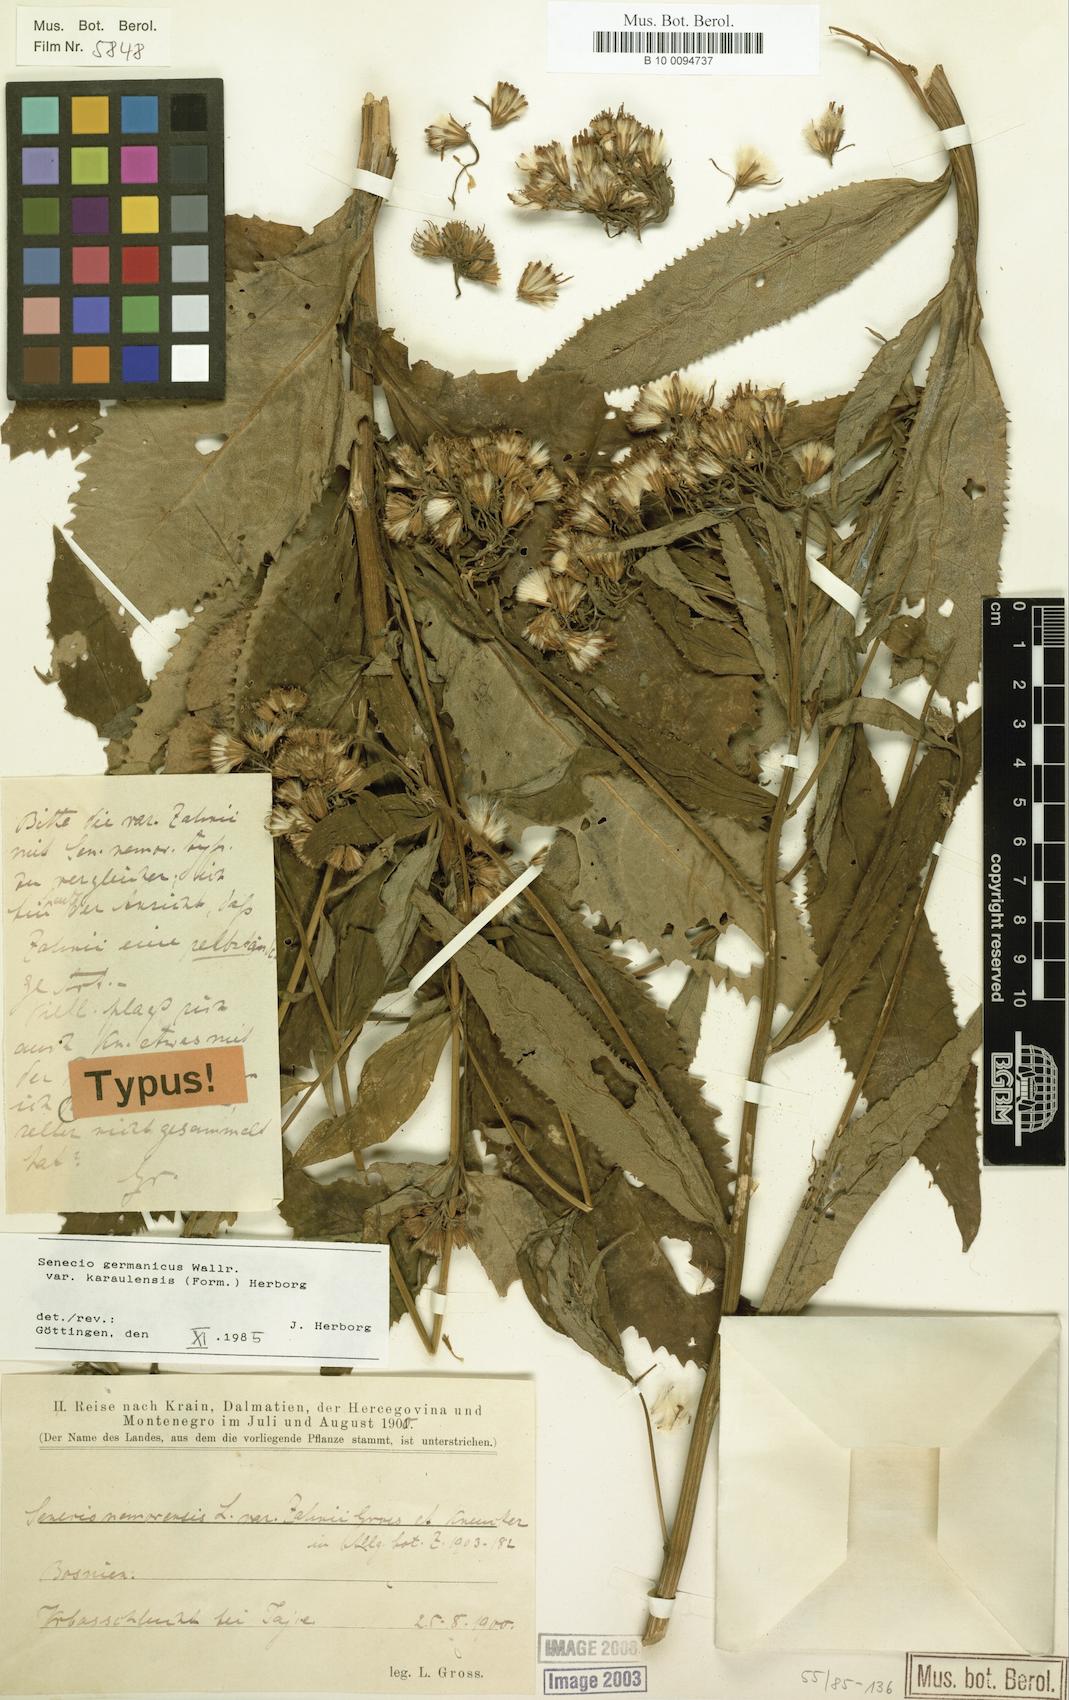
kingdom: Plantae
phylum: Tracheophyta
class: Magnoliopsida
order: Asterales
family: Asteraceae
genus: Senecio
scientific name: Senecio germanicus
